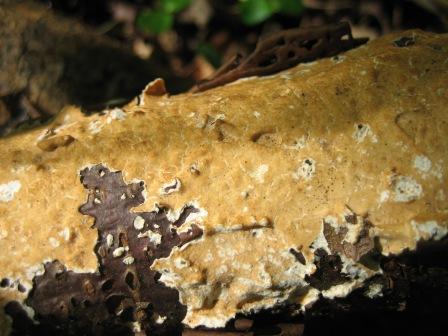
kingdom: Fungi
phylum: Basidiomycota
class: Agaricomycetes
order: Russulales
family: Peniophoraceae
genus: Peniophora
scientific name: Peniophora incarnata
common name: laksefarvet voksskind
